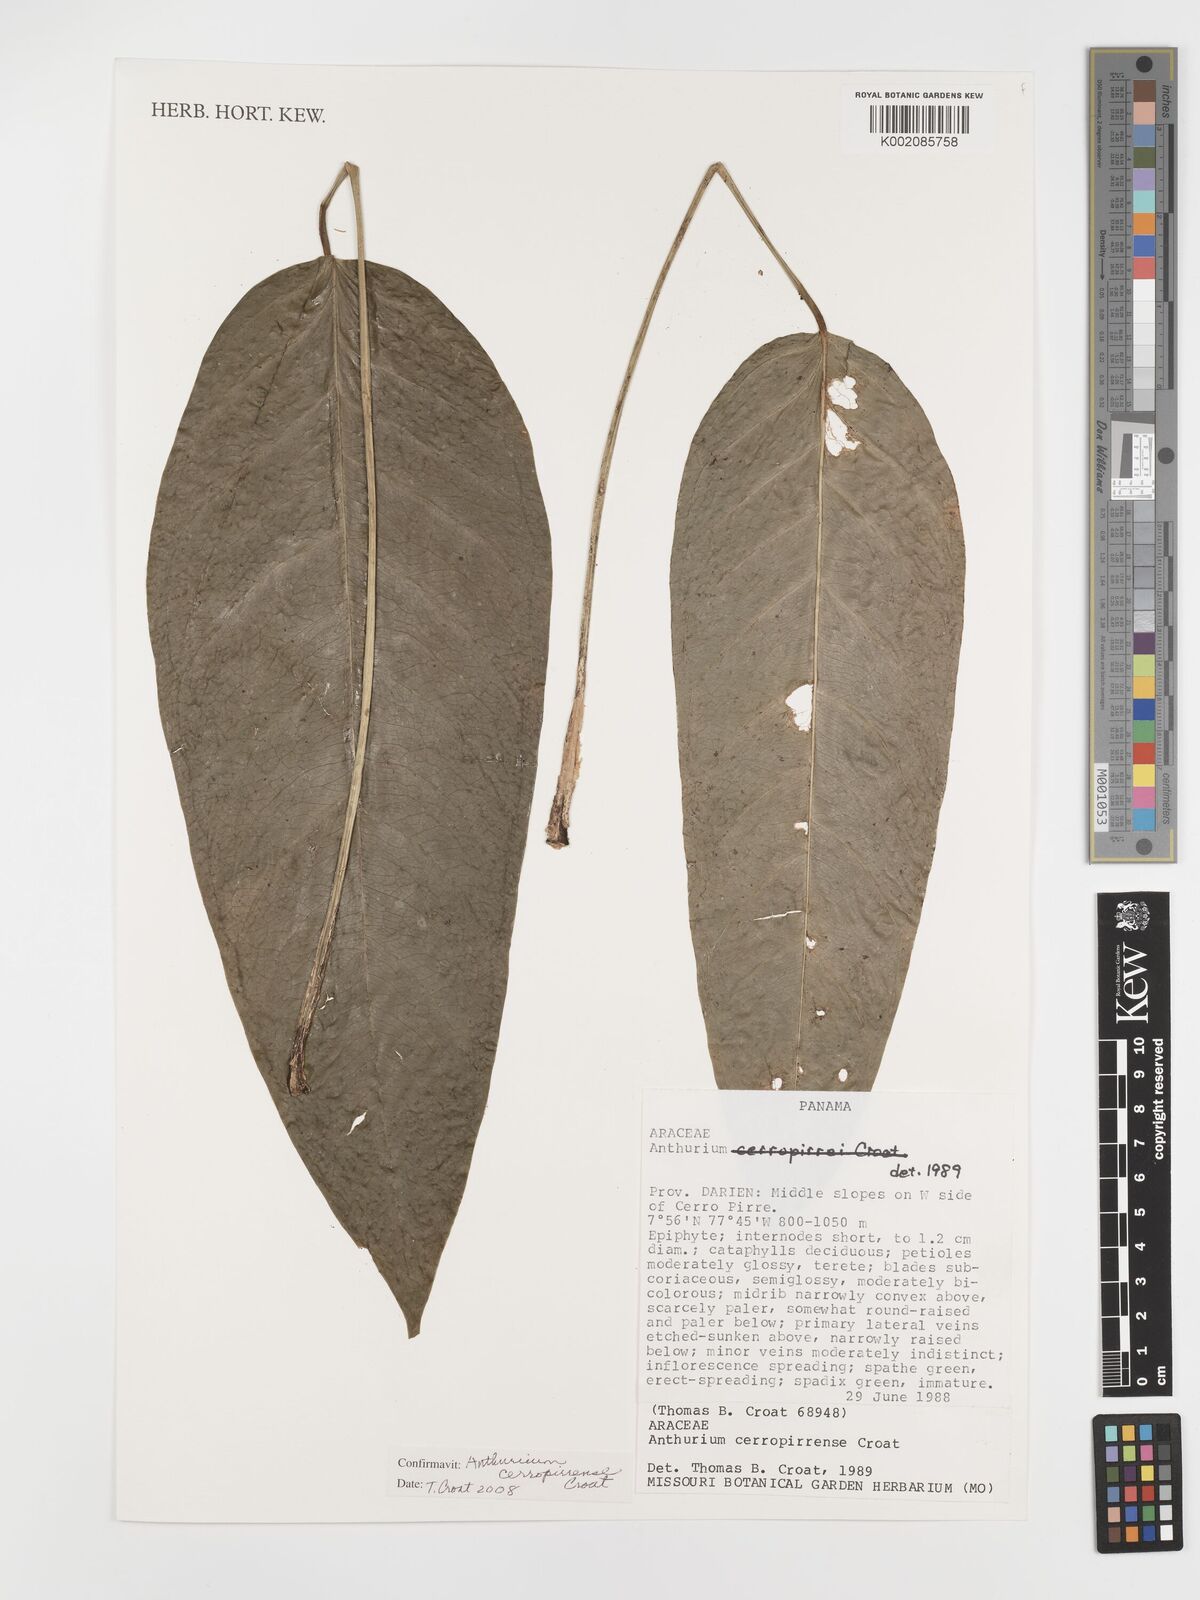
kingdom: Plantae
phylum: Tracheophyta
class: Liliopsida
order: Alismatales
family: Araceae
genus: Anthurium
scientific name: Anthurium cerropirrense
